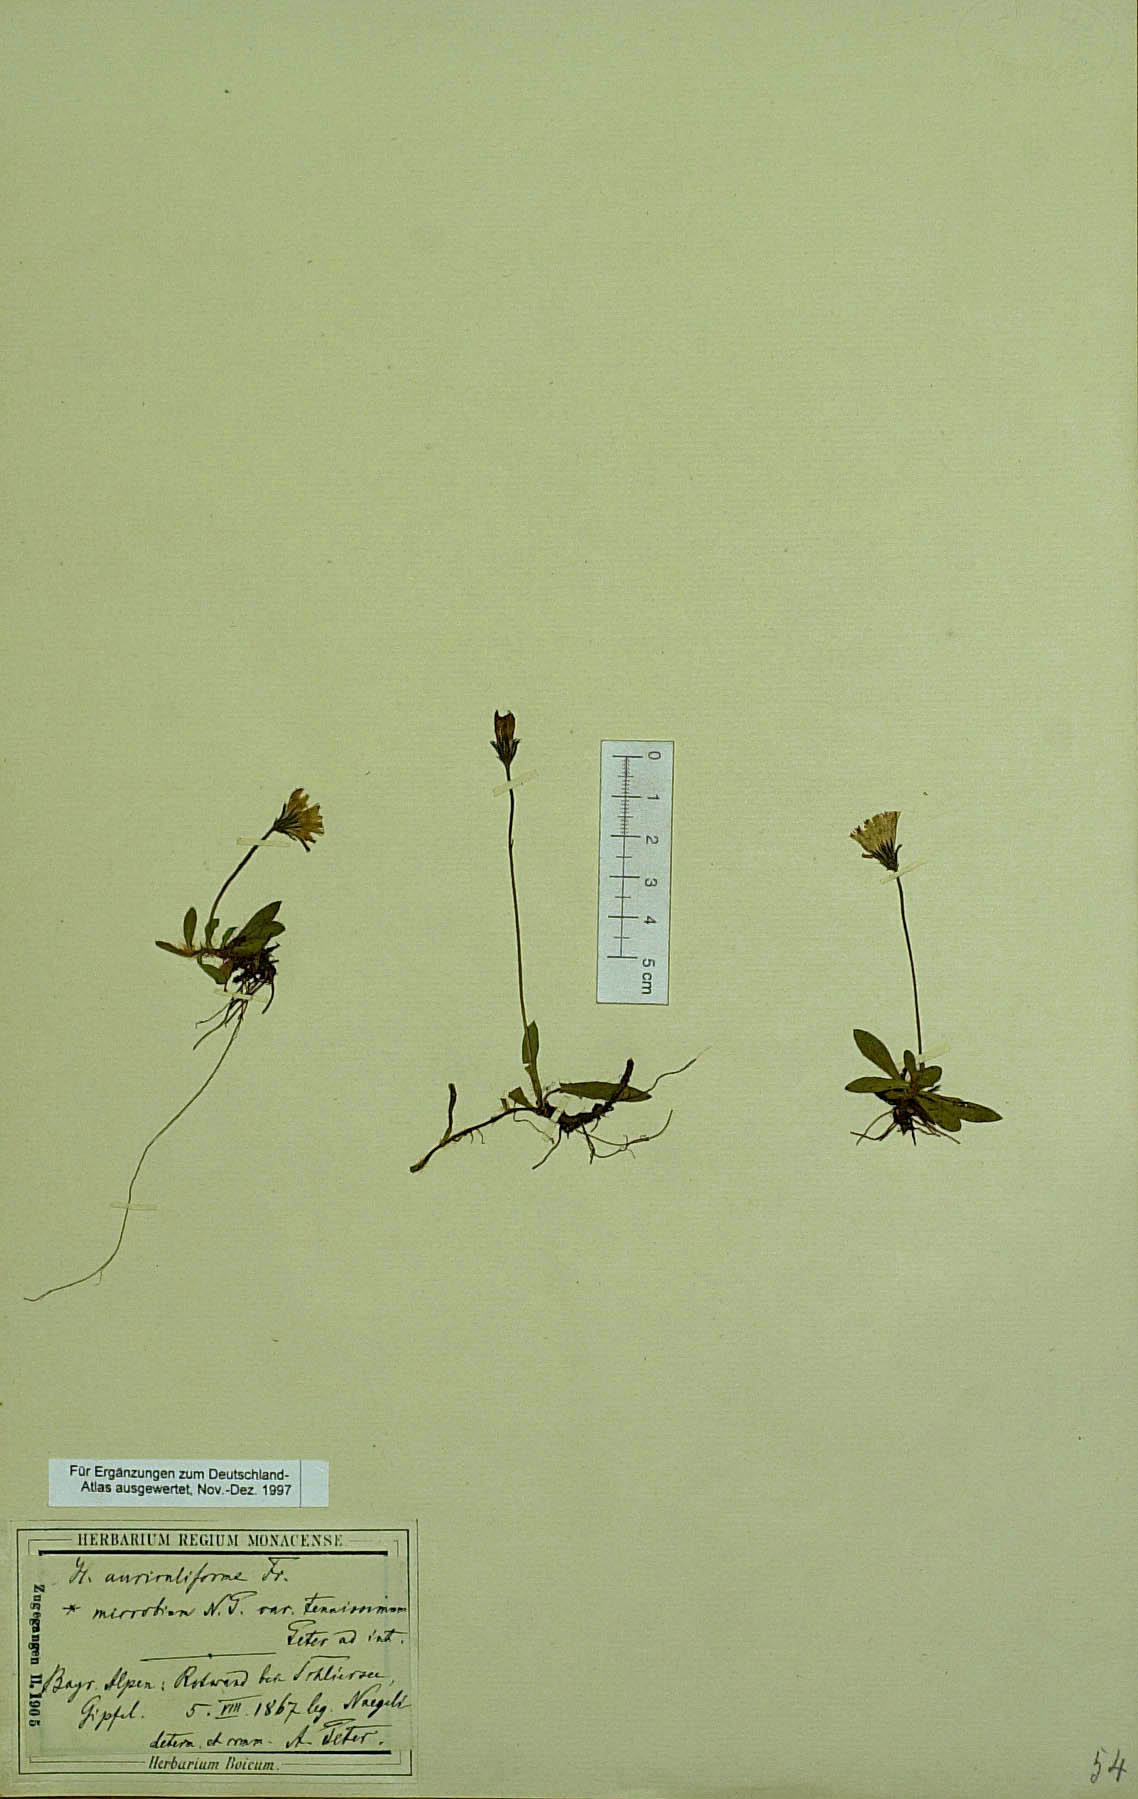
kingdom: Plantae
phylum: Tracheophyta
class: Magnoliopsida
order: Asterales
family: Asteraceae
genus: Pilosella
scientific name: Pilosella schultesii
